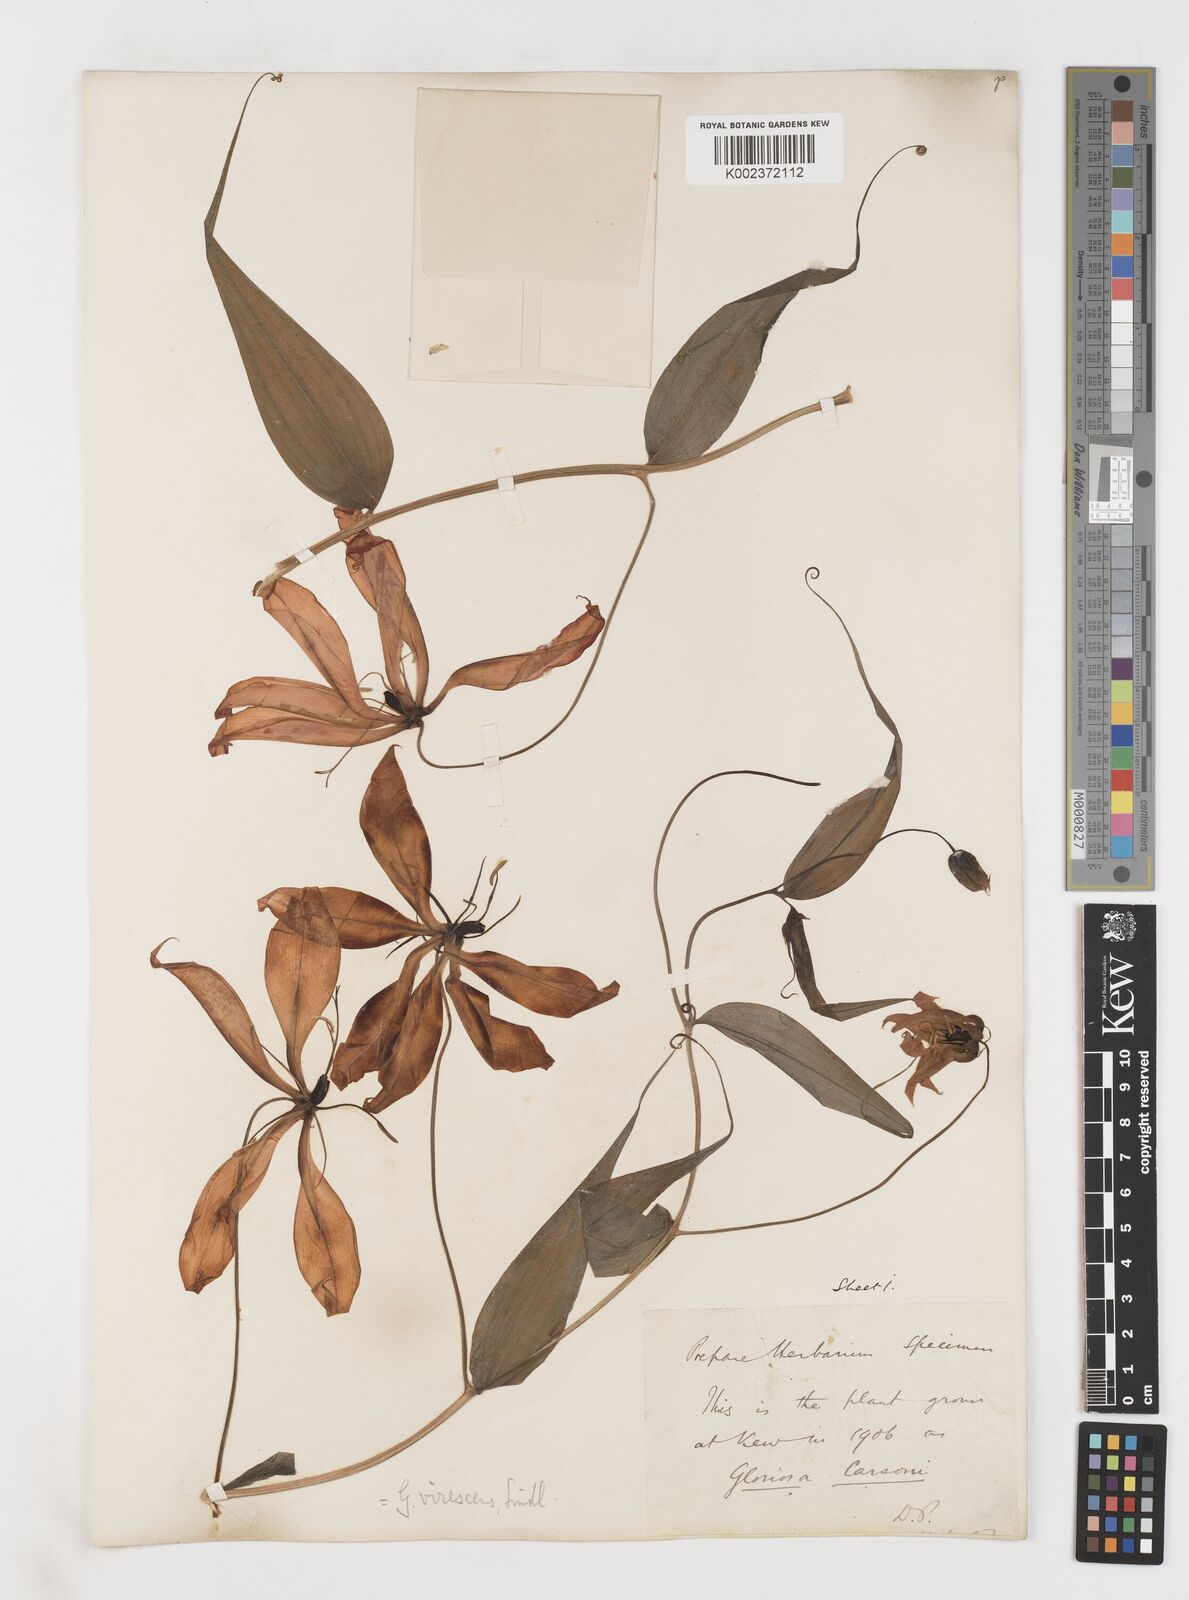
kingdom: Plantae
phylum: Tracheophyta
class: Liliopsida
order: Liliales
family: Colchicaceae
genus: Gloriosa
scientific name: Gloriosa simplex
